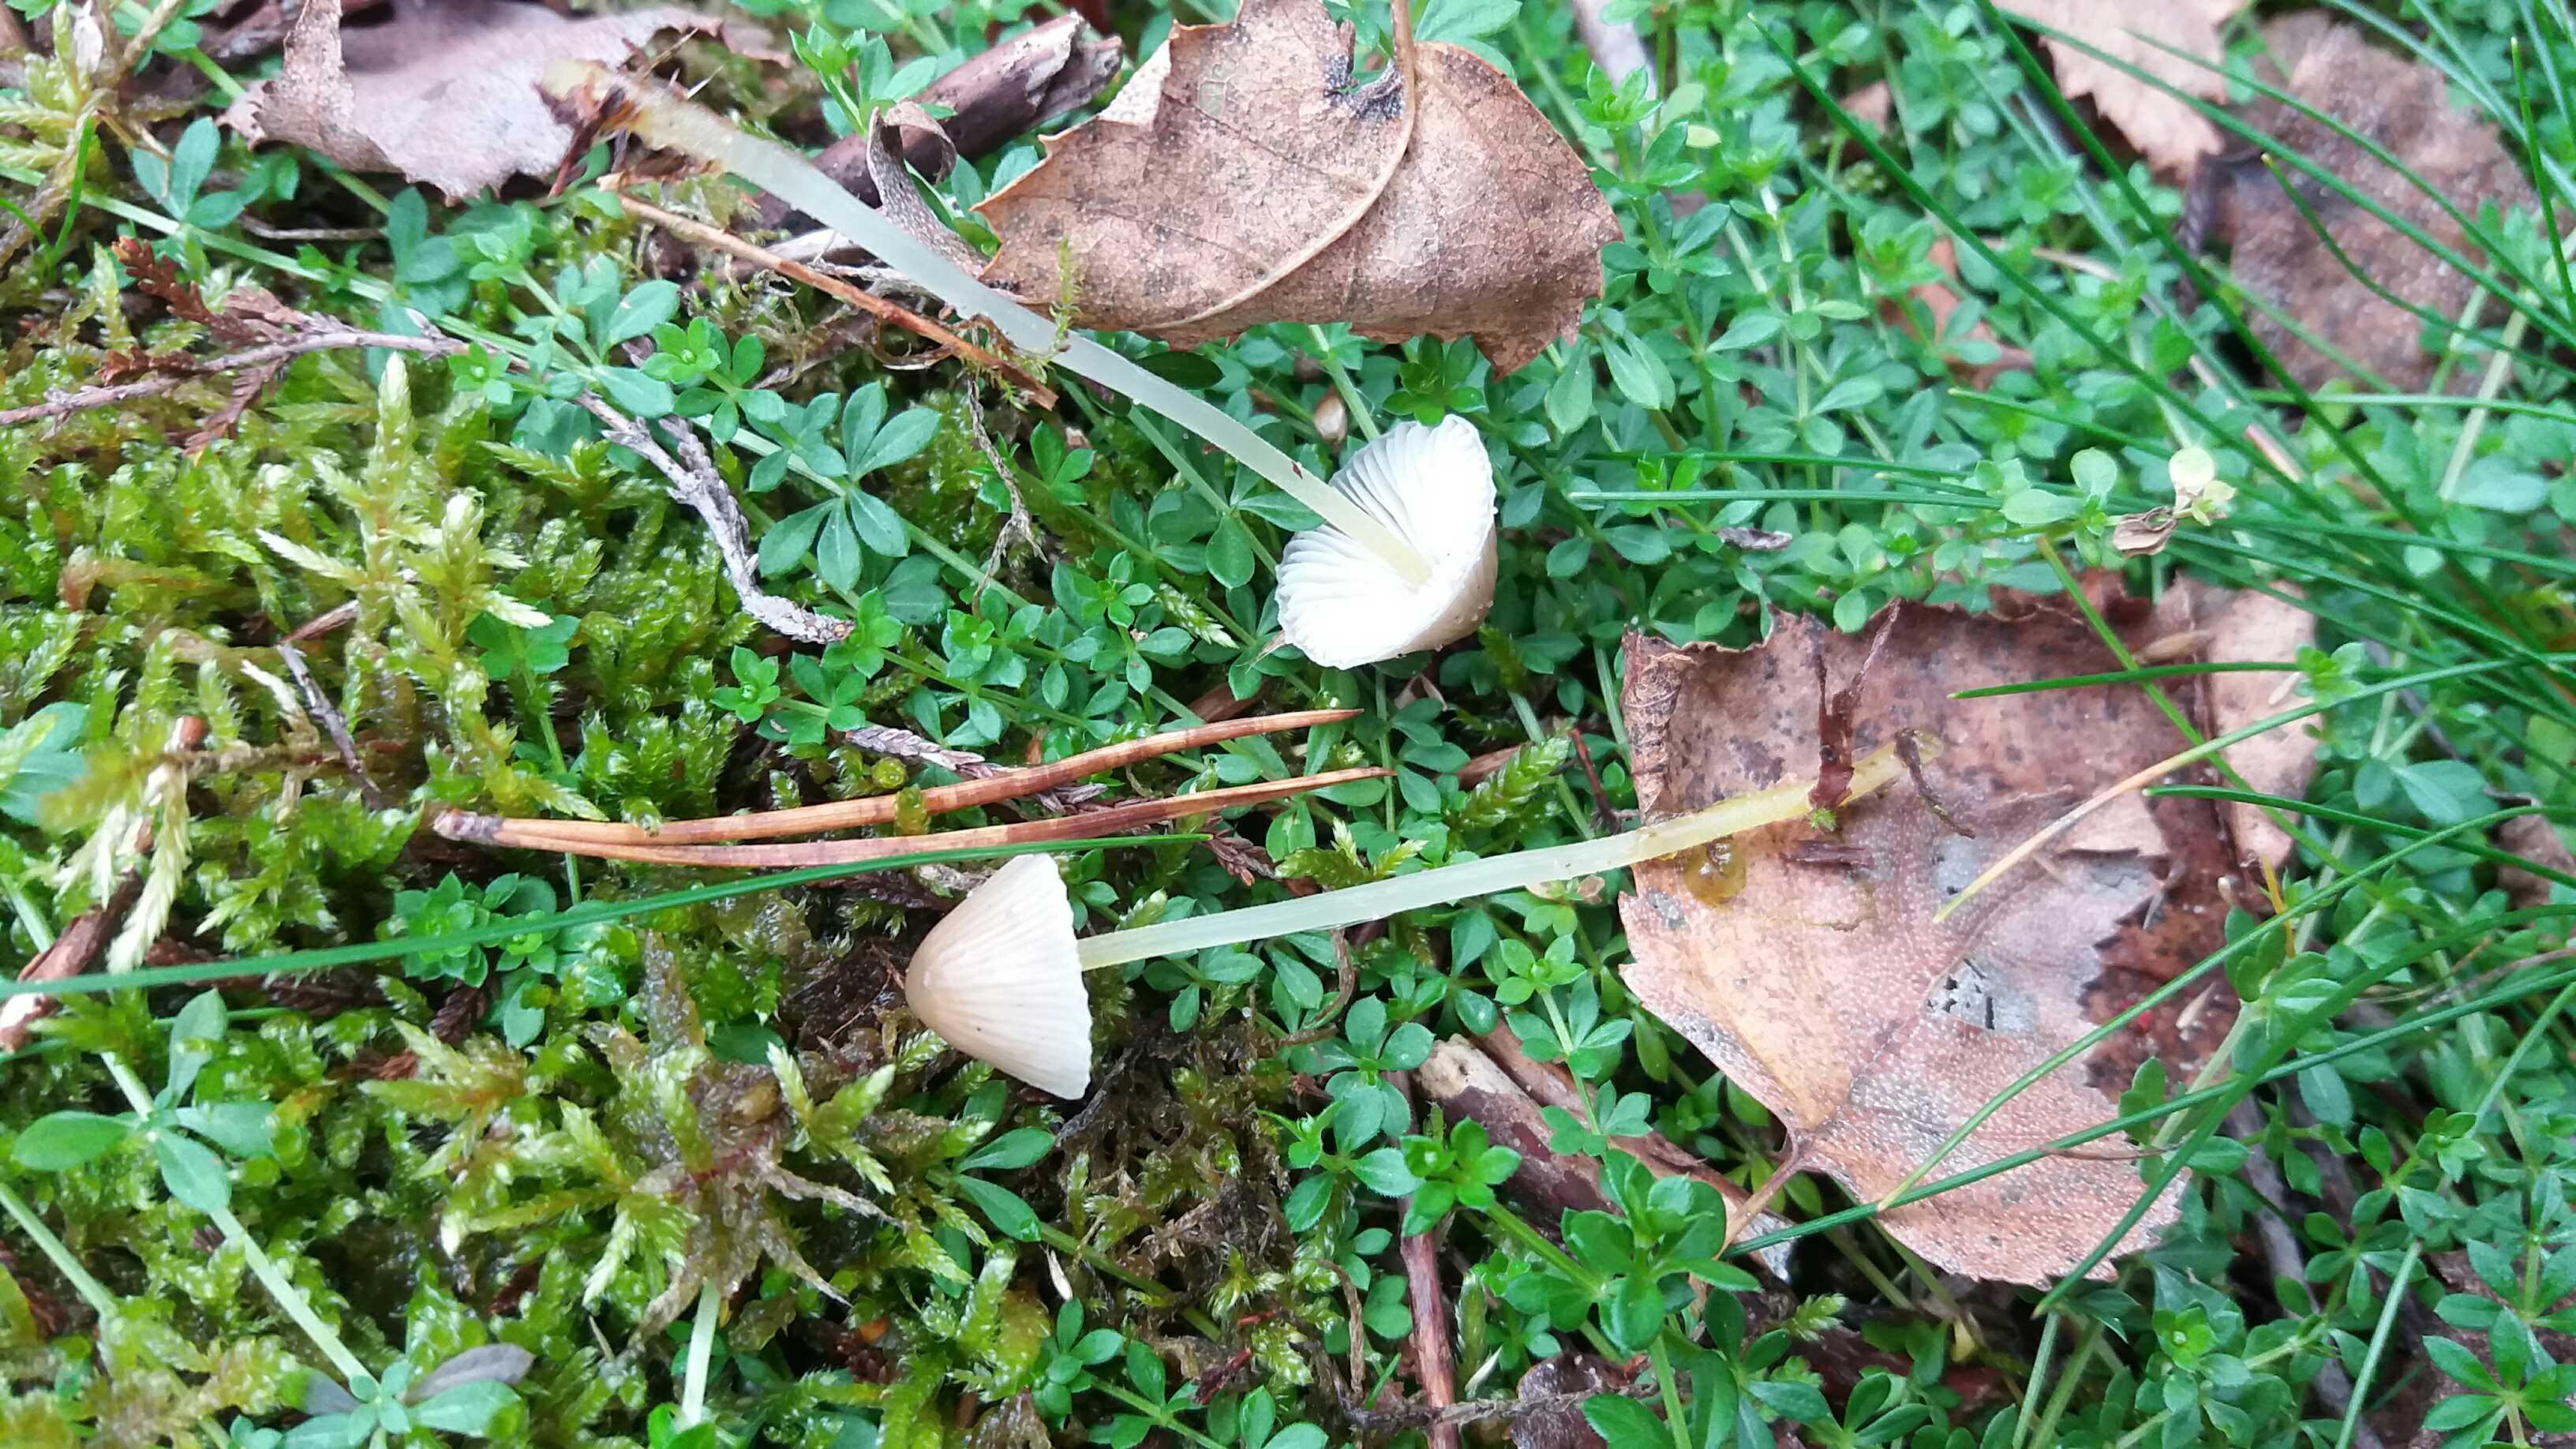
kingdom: Fungi
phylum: Basidiomycota
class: Agaricomycetes
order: Agaricales
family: Mycenaceae
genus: Mycena
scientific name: Mycena epipterygia
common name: gulstokket huesvamp
